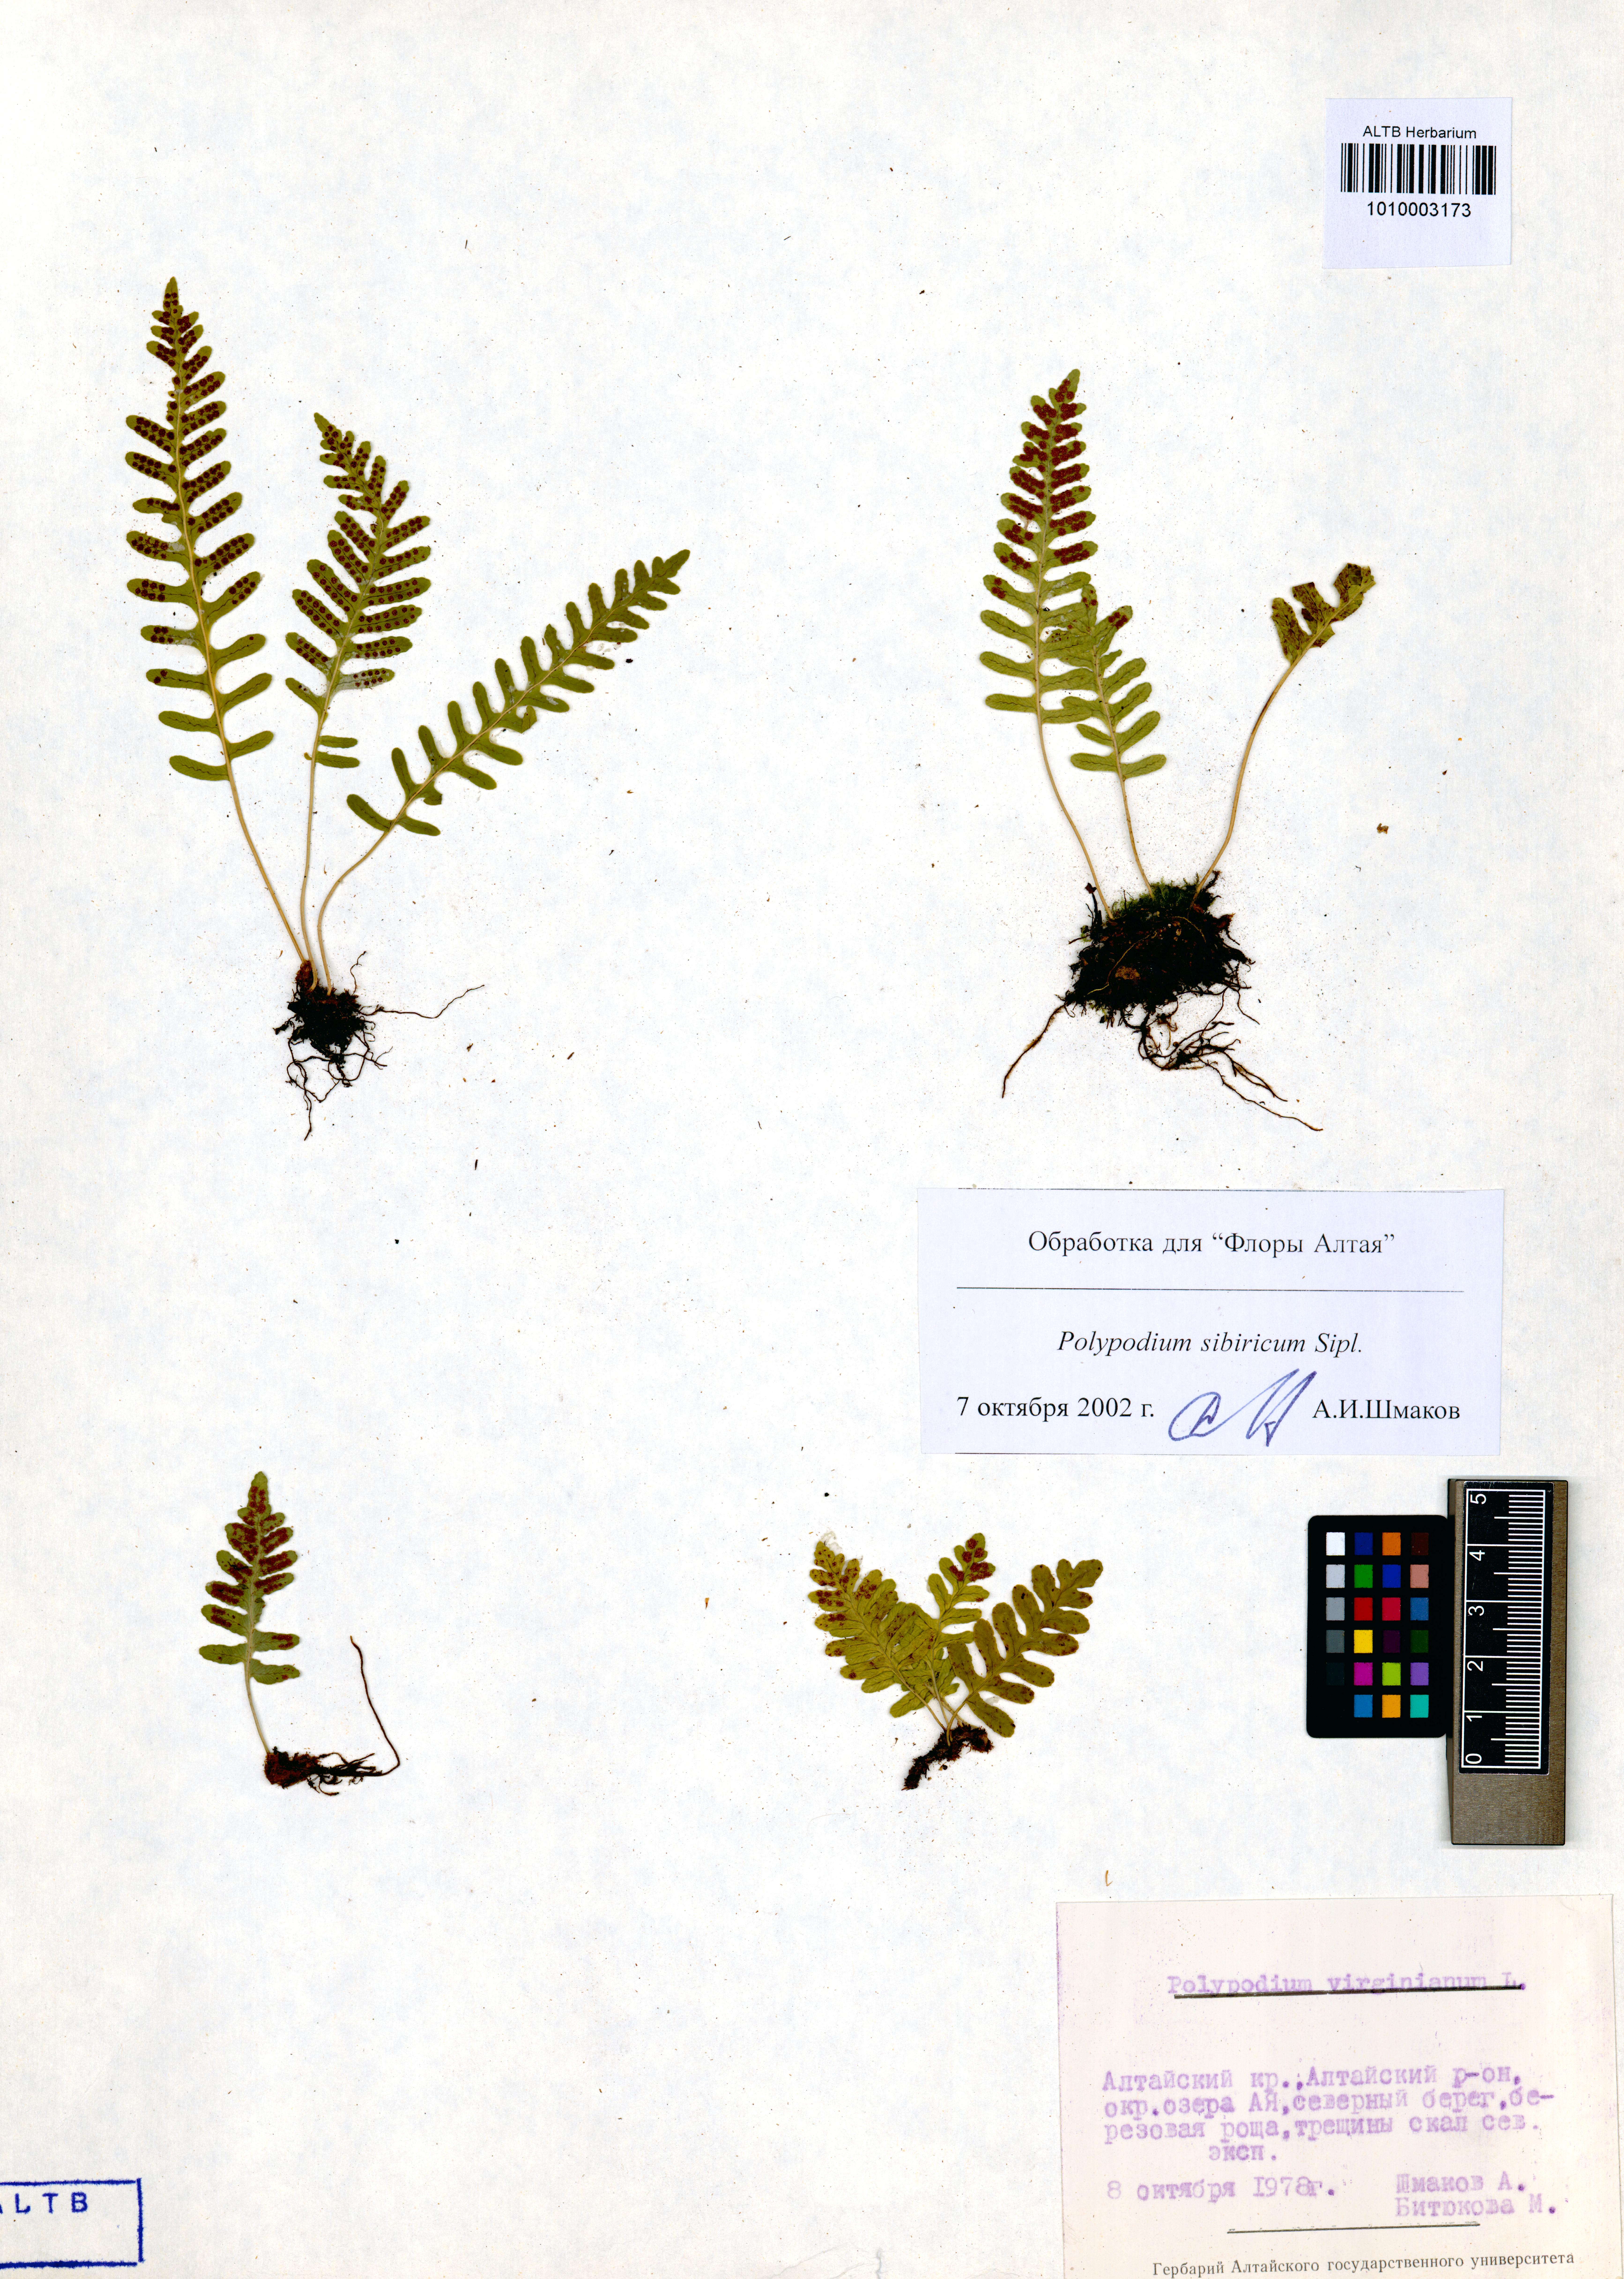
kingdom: Plantae
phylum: Tracheophyta
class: Polypodiopsida
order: Polypodiales
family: Polypodiaceae
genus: Polypodium
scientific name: Polypodium sibiricum
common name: Siberian polypody
